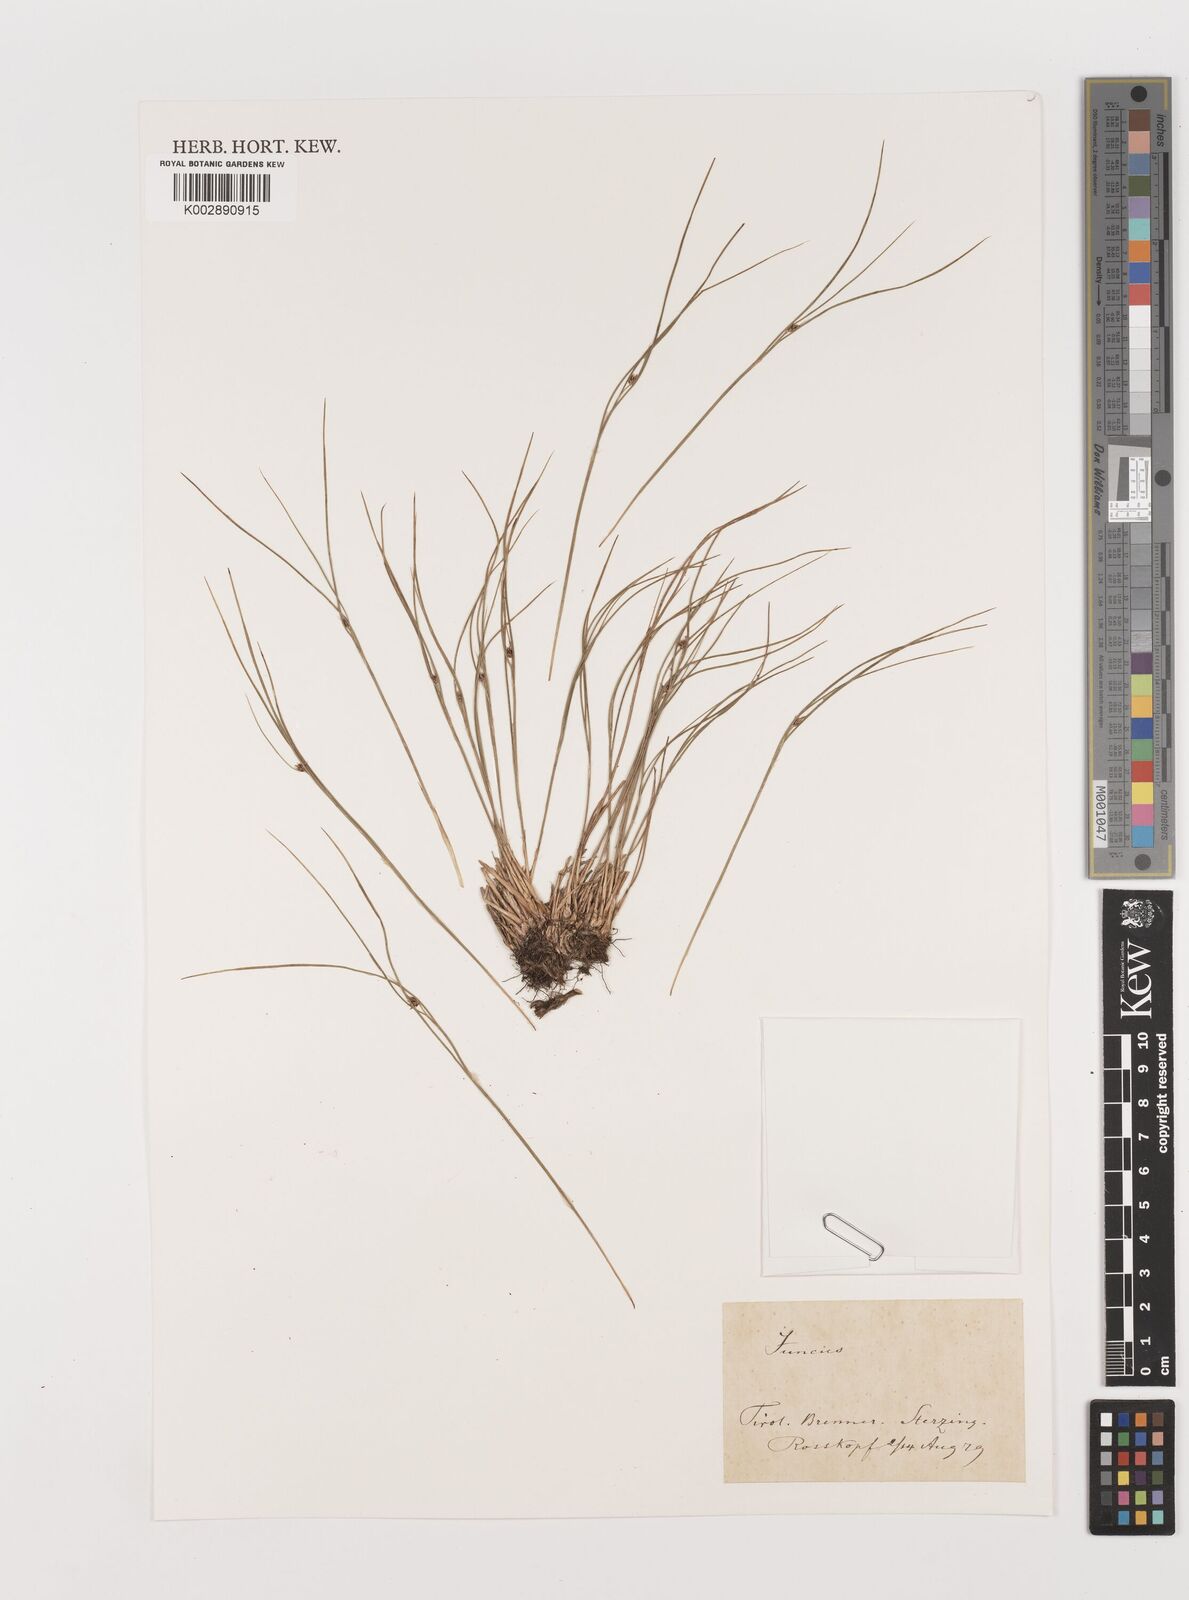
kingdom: Plantae
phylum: Tracheophyta
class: Liliopsida
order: Poales
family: Juncaceae
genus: Juncus
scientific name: Juncus
